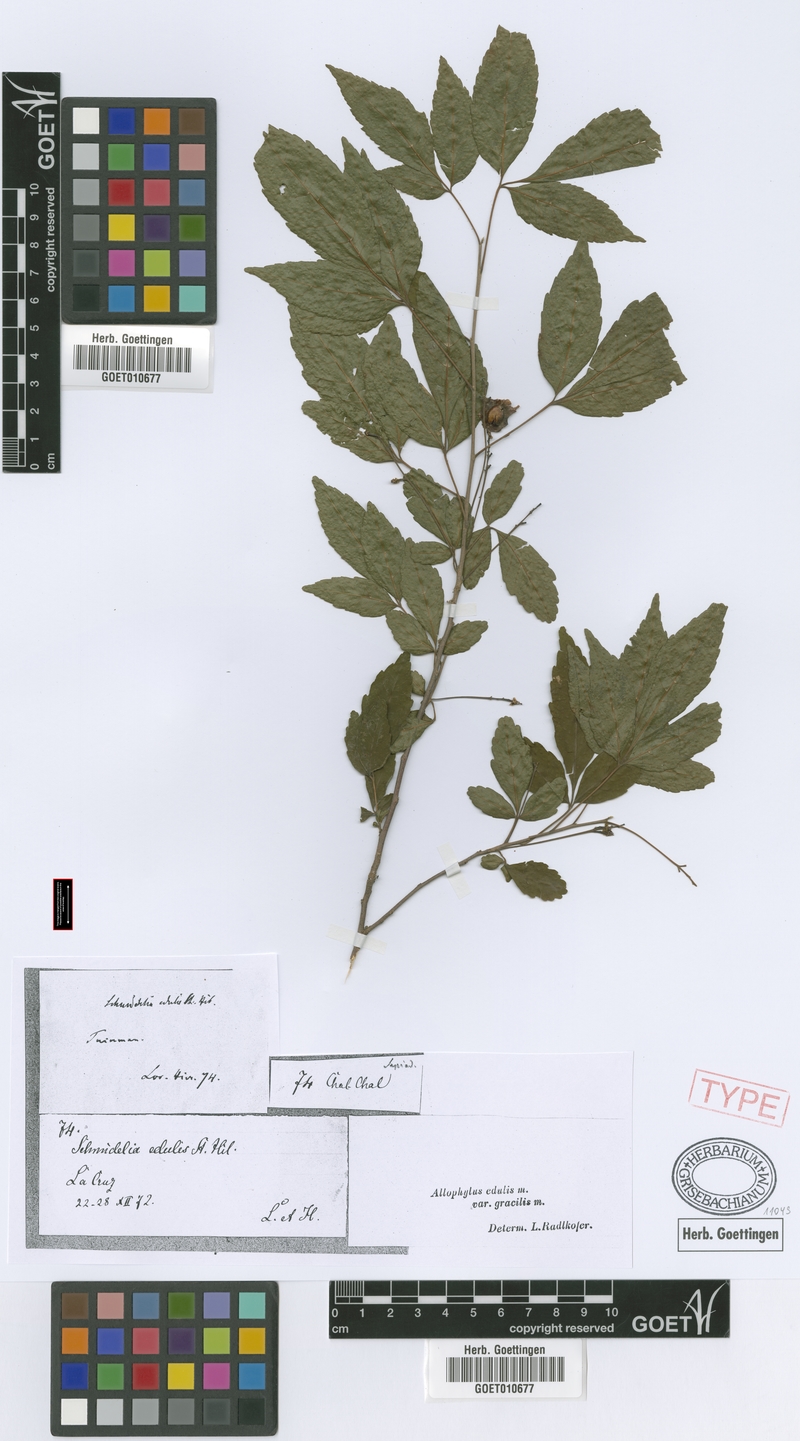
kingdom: Plantae
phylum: Tracheophyta
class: Magnoliopsida
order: Sapindales
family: Sapindaceae
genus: Allophylus
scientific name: Allophylus edulis
